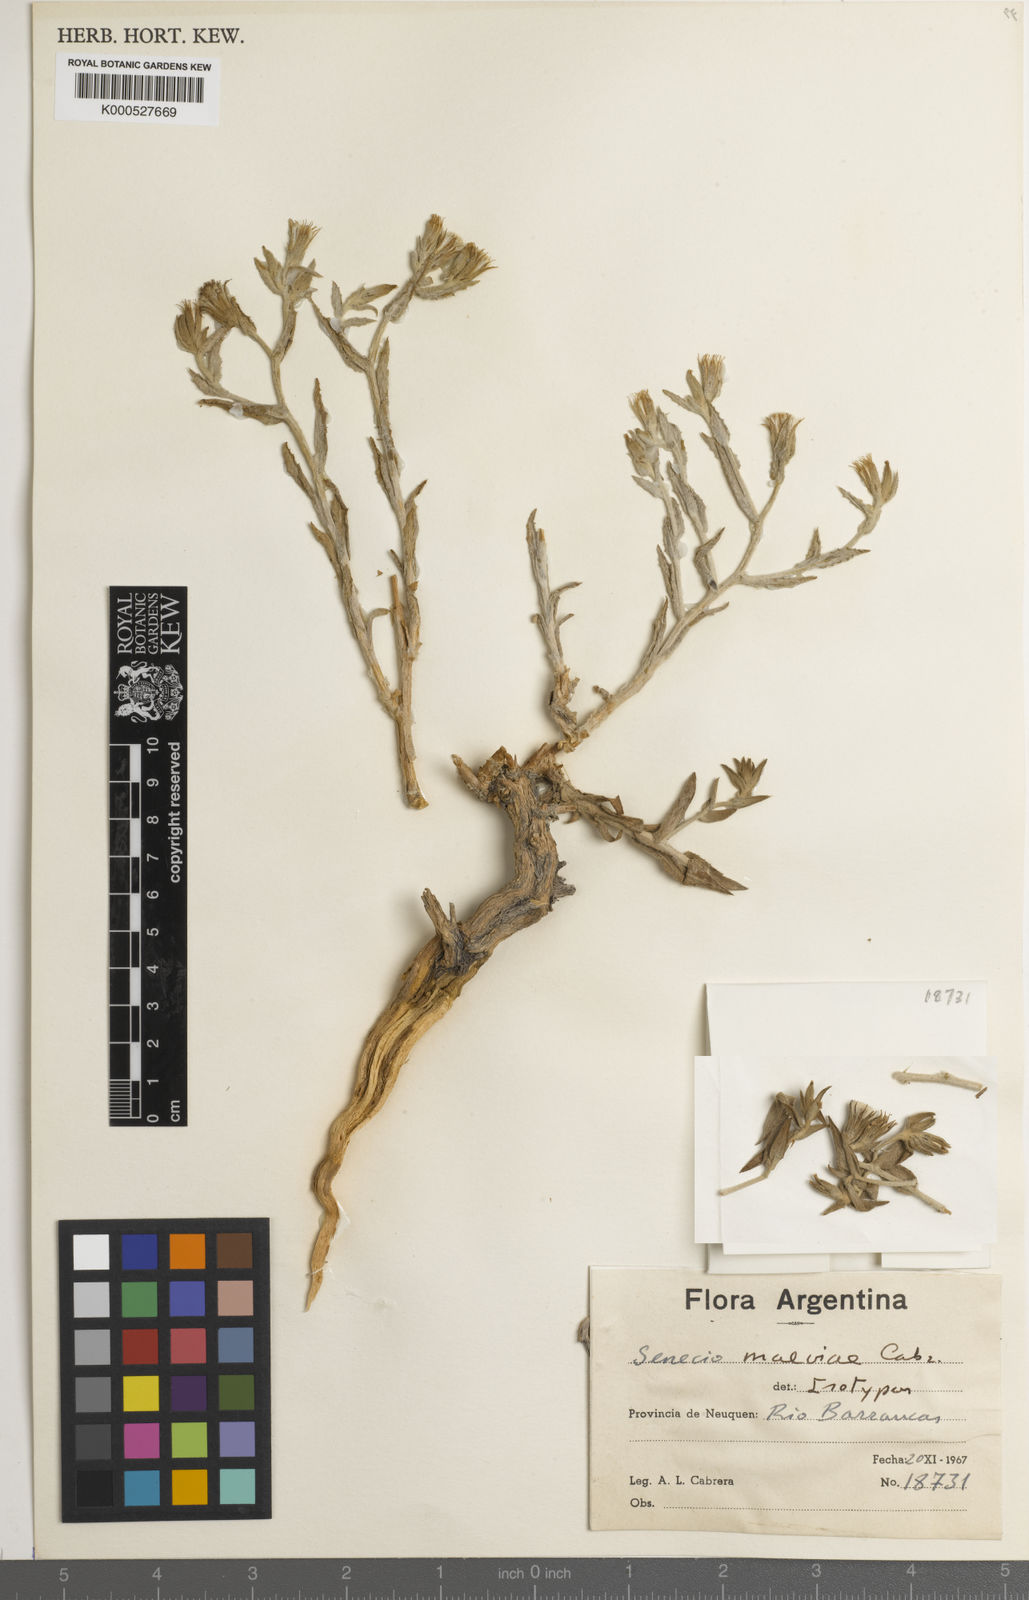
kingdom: Plantae
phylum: Tracheophyta
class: Magnoliopsida
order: Asterales
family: Asteraceae
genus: Senecio
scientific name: Senecio maeviae
